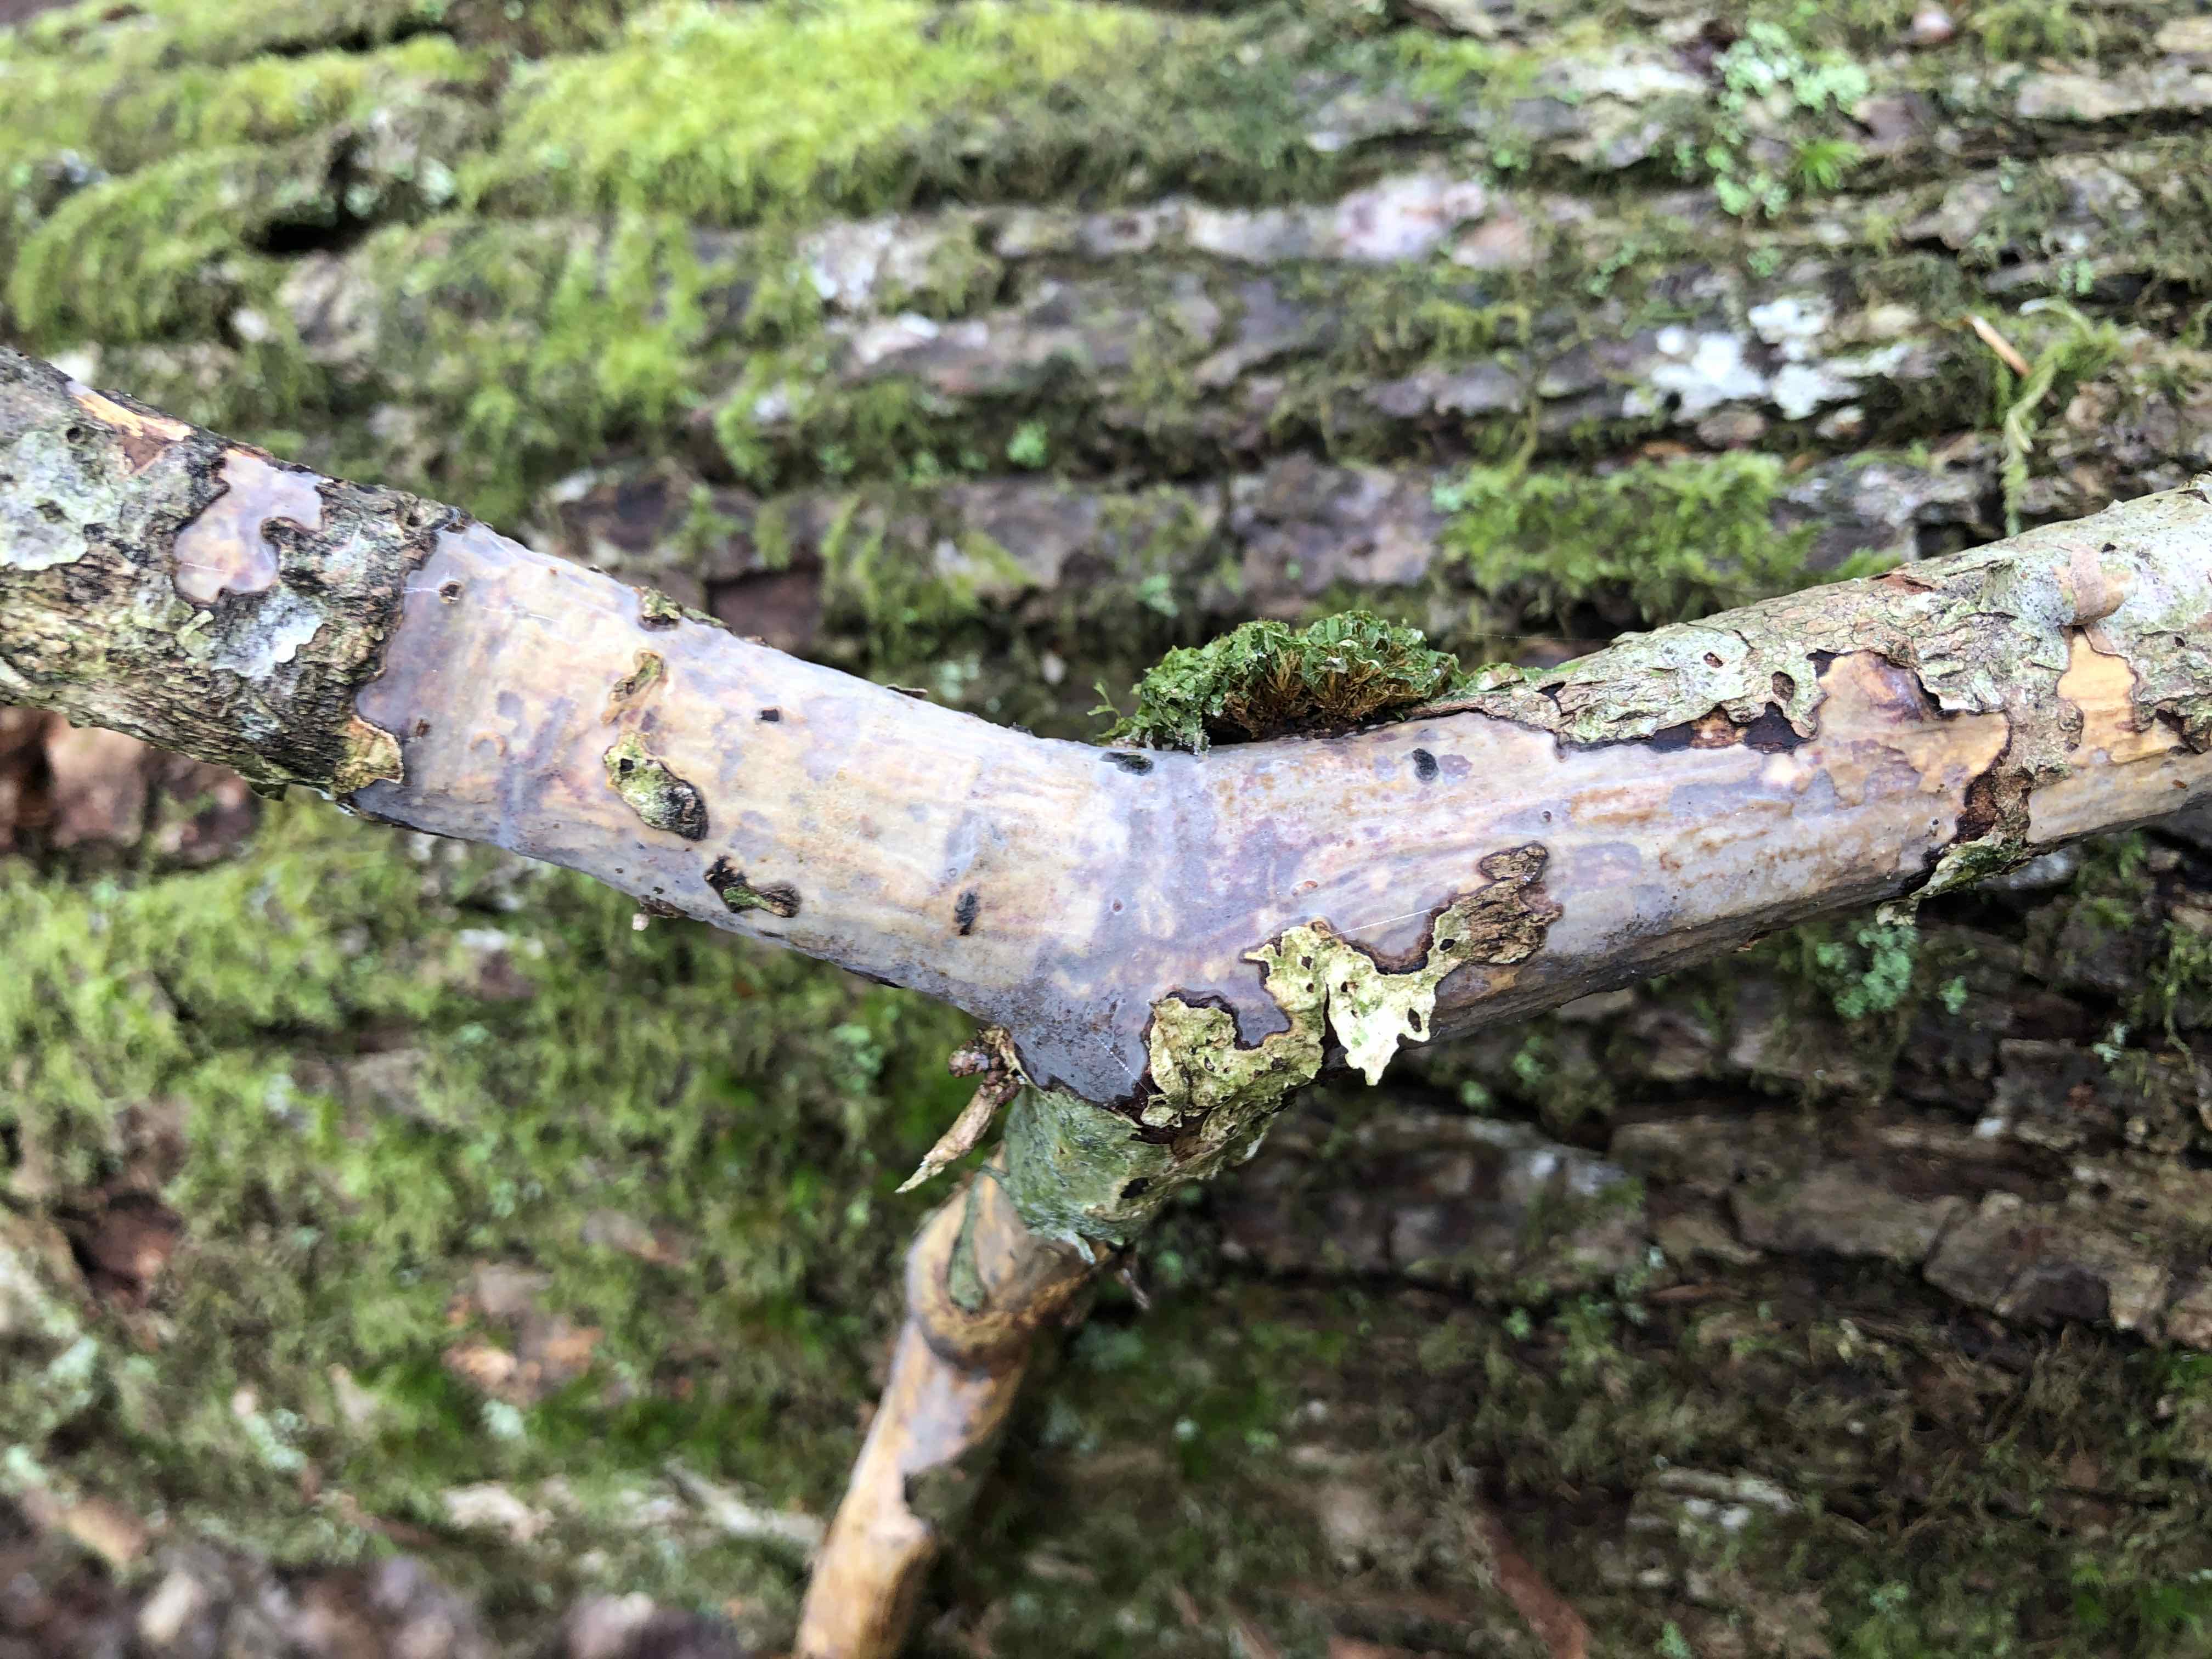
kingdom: Fungi
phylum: Basidiomycota
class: Agaricomycetes
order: Corticiales
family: Vuilleminiaceae
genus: Vuilleminia
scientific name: Vuilleminia comedens
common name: almindelig barksprænger
